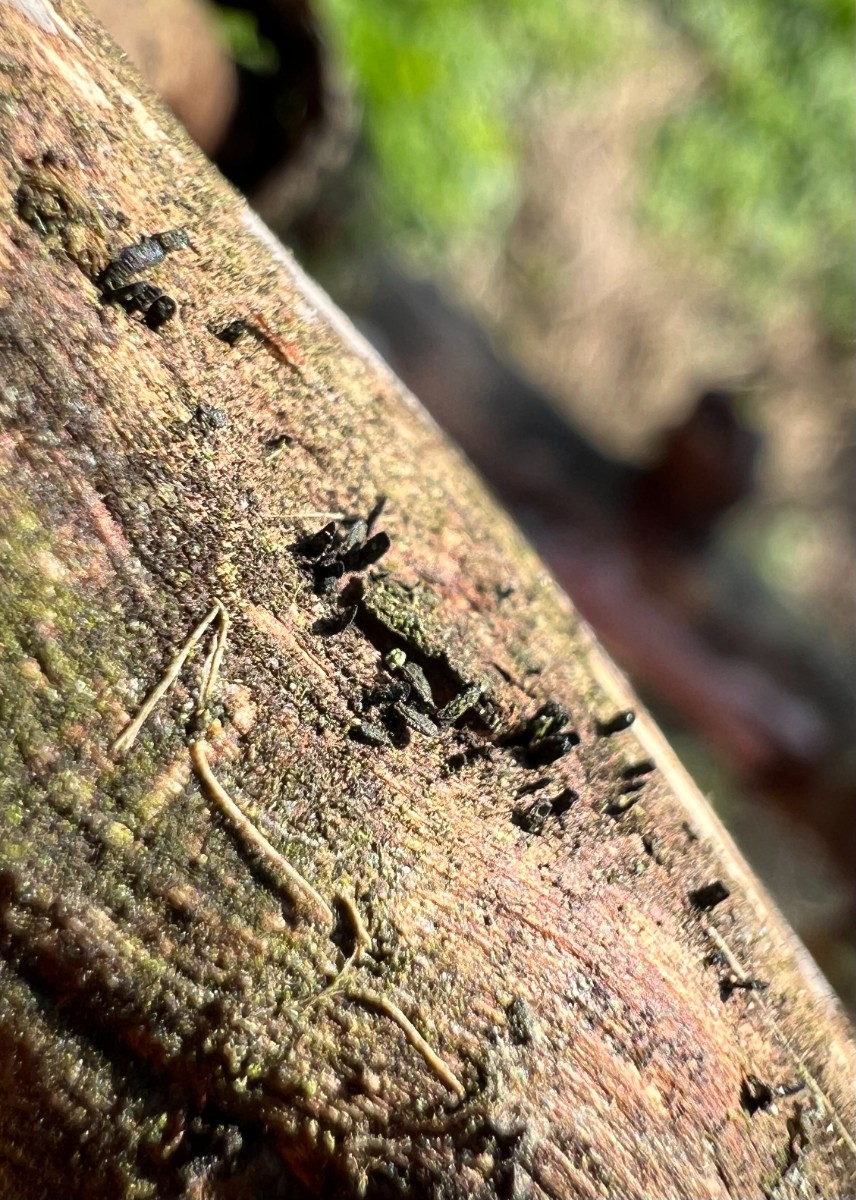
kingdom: Fungi
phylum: Ascomycota
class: Eurotiomycetes
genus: Glyphium
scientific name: Glyphium elatum
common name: kuløkse
